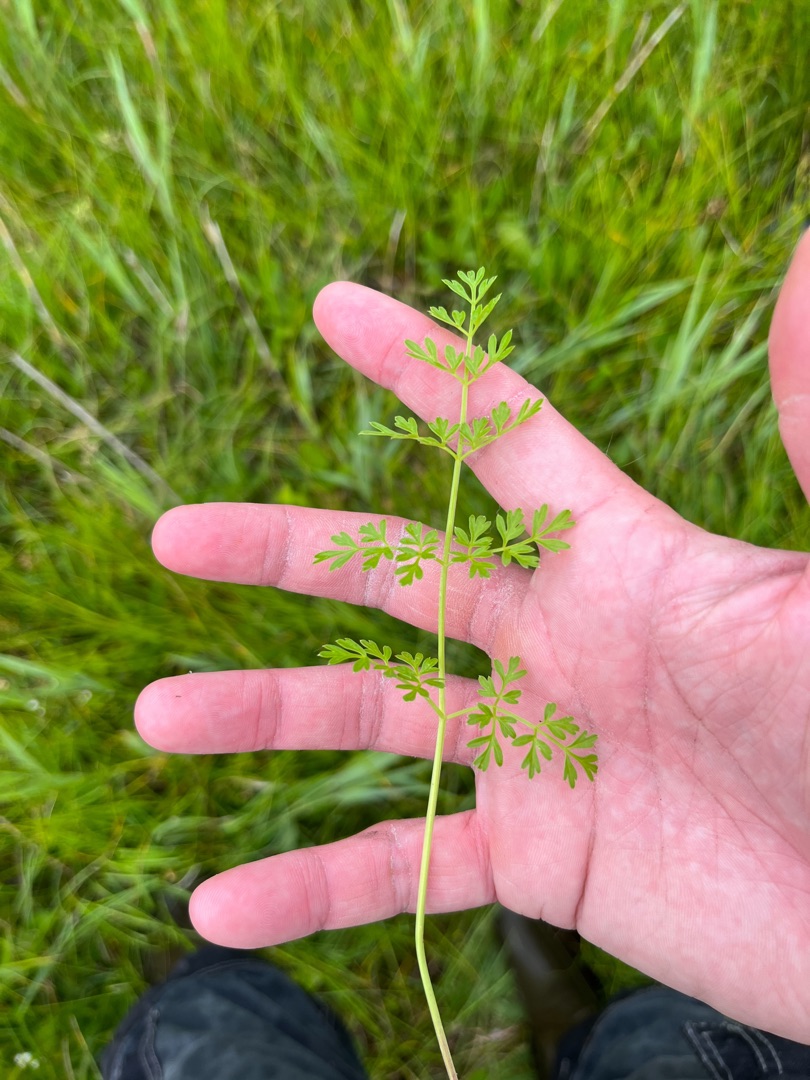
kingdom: Plantae
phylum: Tracheophyta
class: Magnoliopsida
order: Apiales
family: Apiaceae
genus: Selinum
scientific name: Selinum carvifolia
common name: Seline
